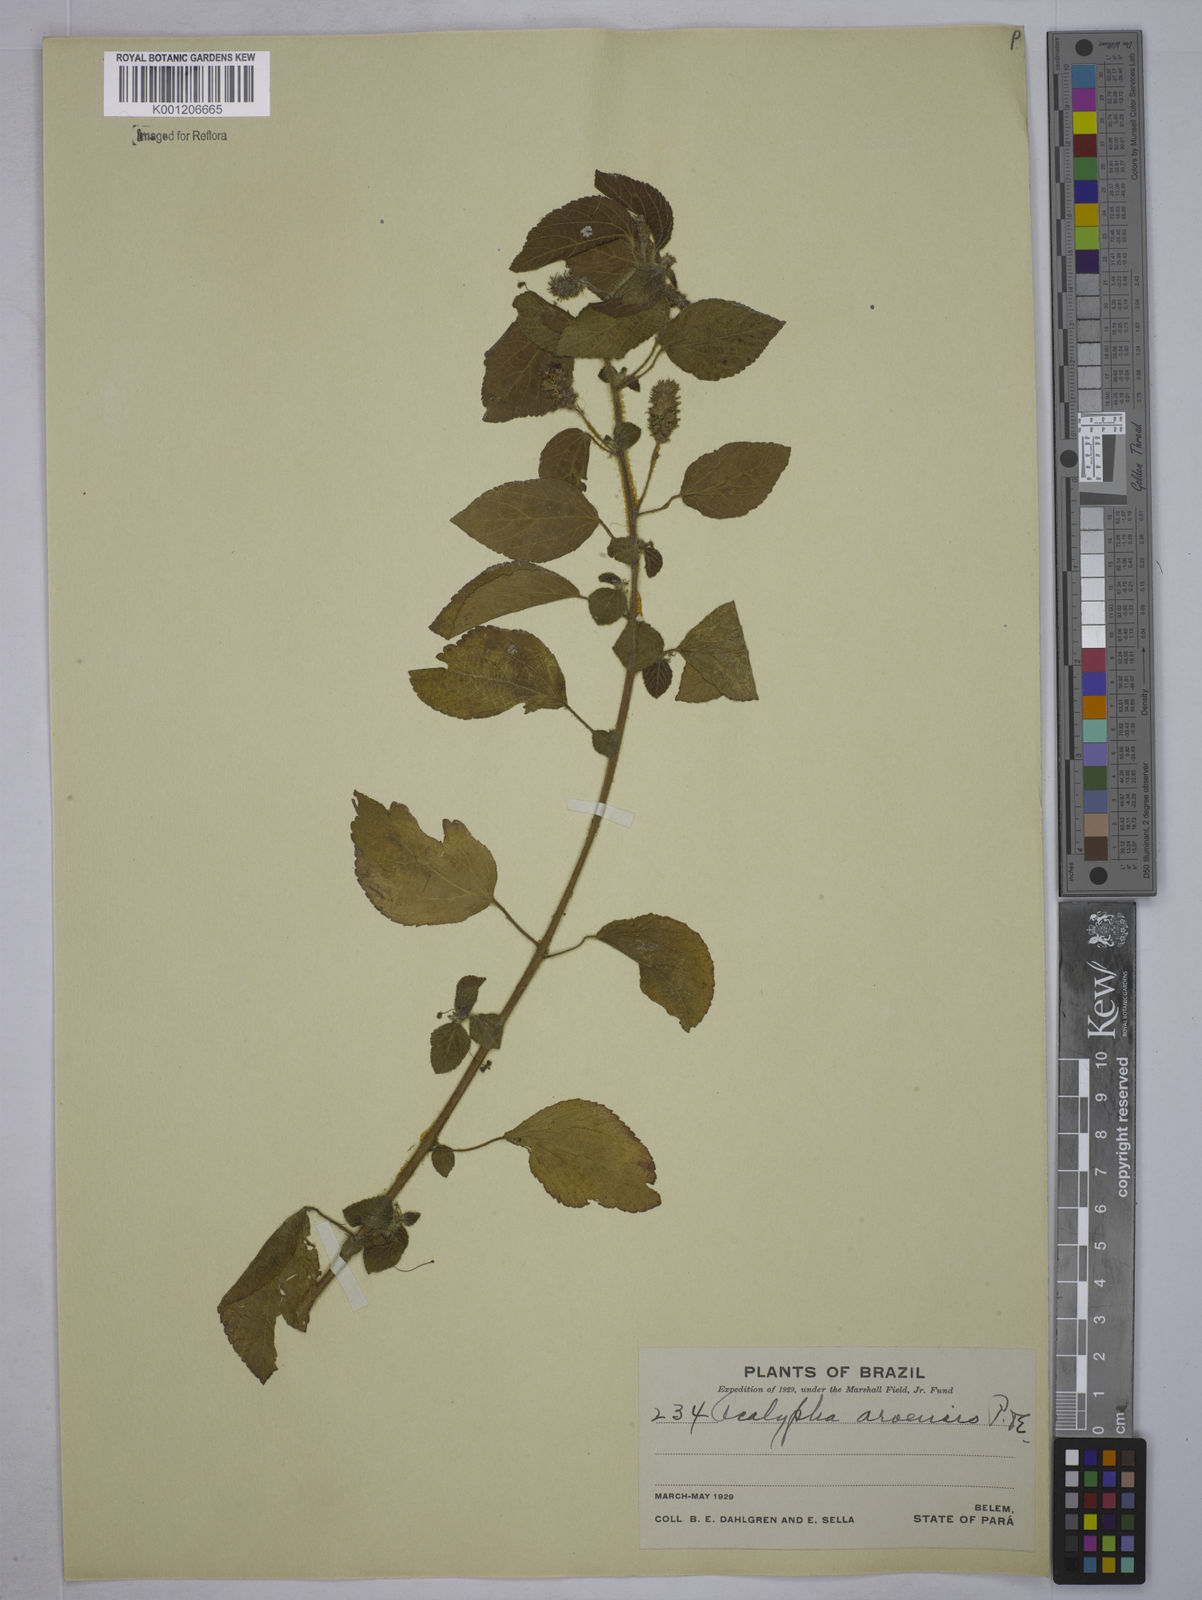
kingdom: Plantae
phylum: Tracheophyta
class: Magnoliopsida
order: Malpighiales
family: Euphorbiaceae
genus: Acalypha
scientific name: Acalypha arvensis
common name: Field copperleaf
